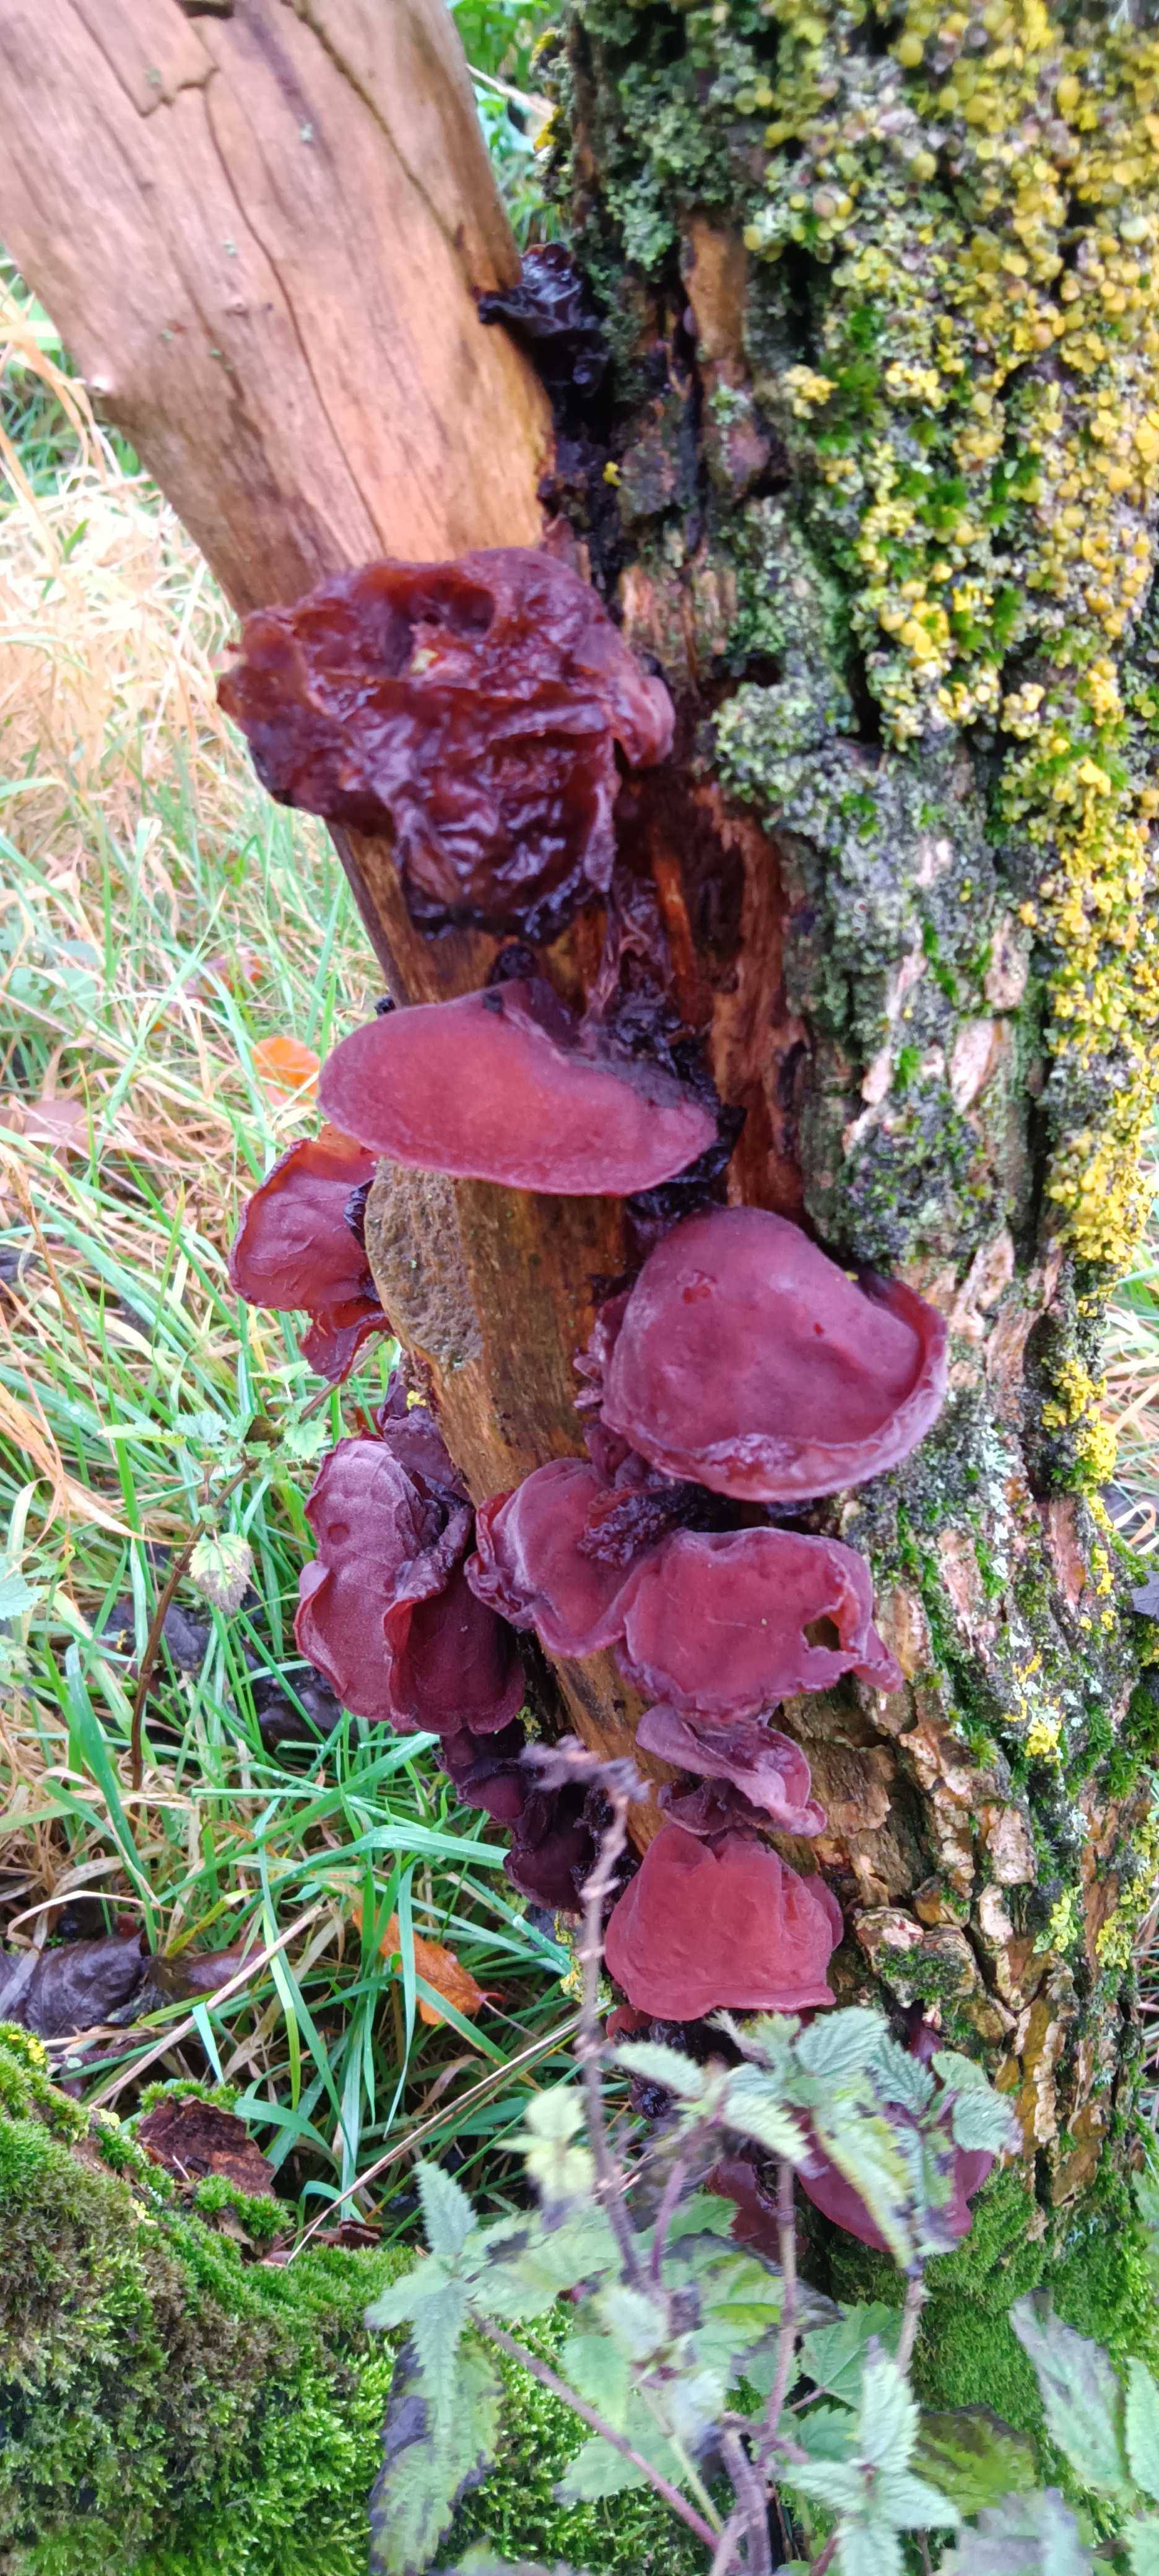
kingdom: Fungi
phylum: Basidiomycota
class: Agaricomycetes
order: Auriculariales
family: Auriculariaceae
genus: Auricularia
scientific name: Auricularia auricula-judae
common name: almindelig judasøre
